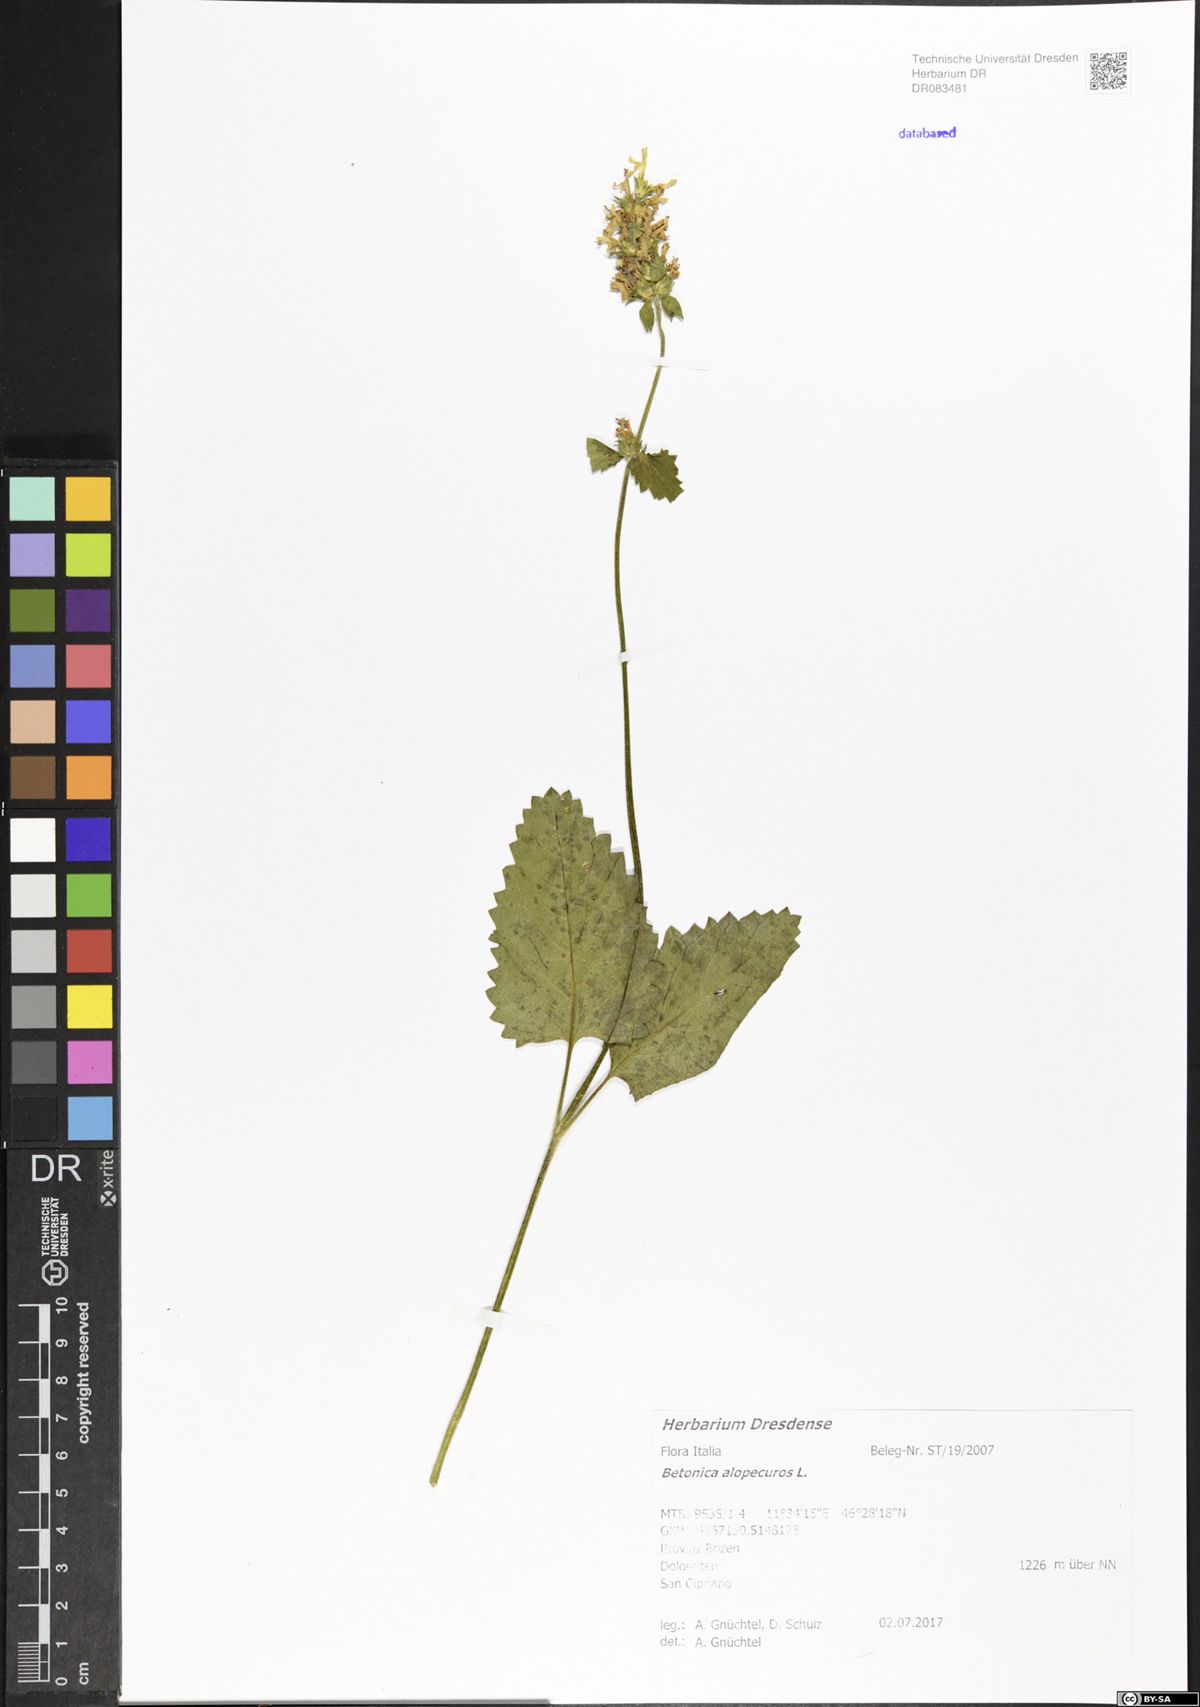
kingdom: Plantae
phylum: Tracheophyta
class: Magnoliopsida
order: Lamiales
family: Lamiaceae
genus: Betonica
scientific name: Betonica alopecuros
